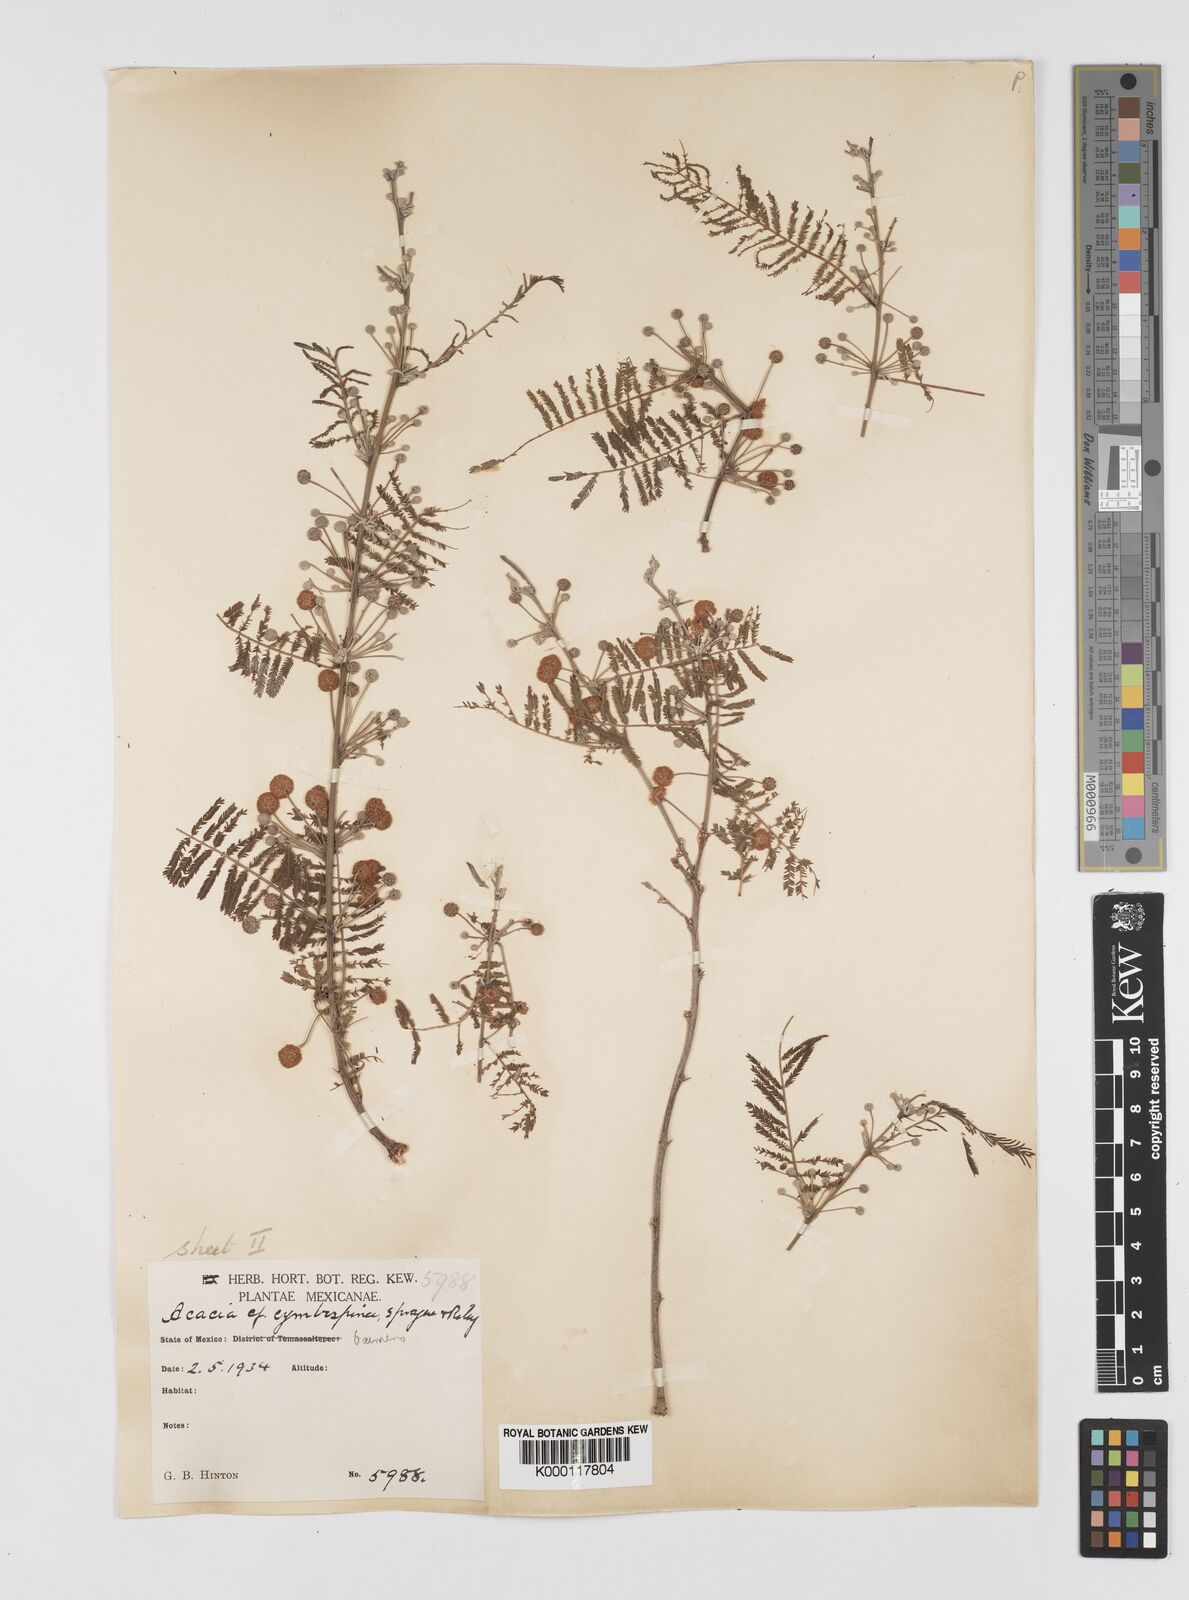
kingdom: Plantae
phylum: Tracheophyta
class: Magnoliopsida
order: Fabales
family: Fabaceae
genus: Vachellia
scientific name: Vachellia campeachiana
